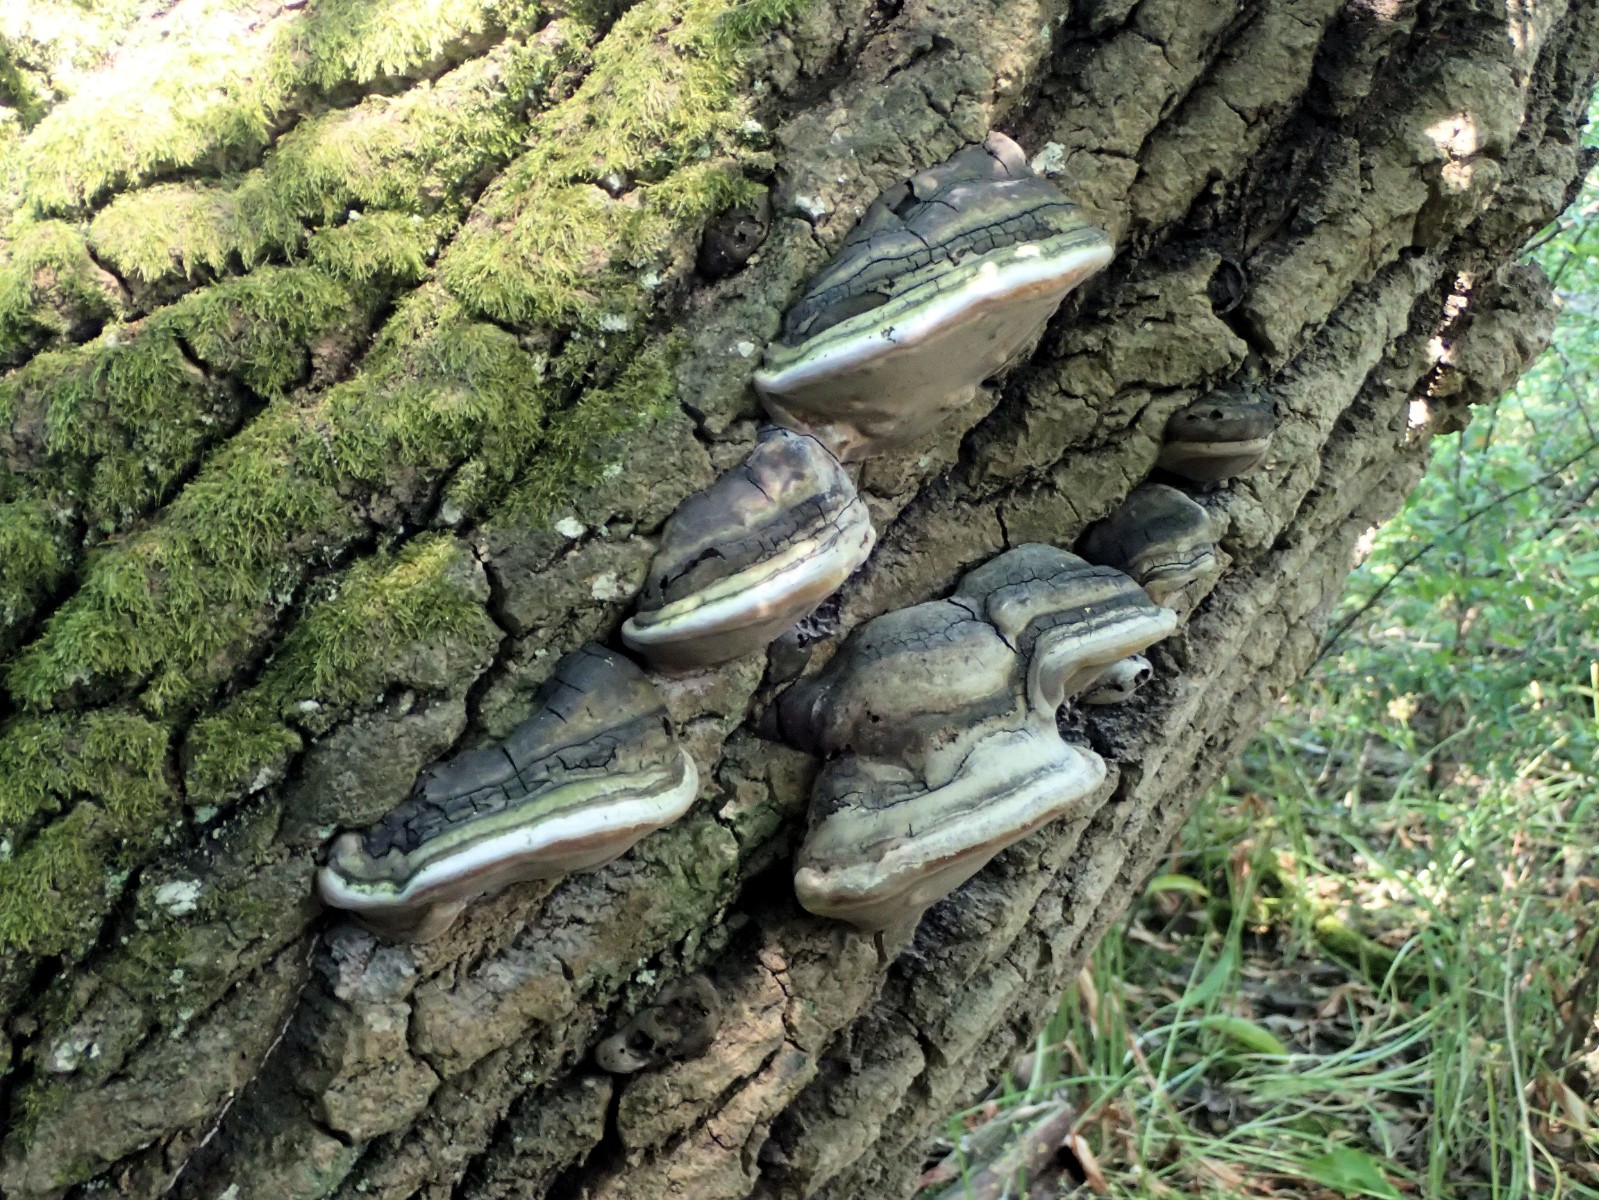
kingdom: Fungi
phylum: Basidiomycota
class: Agaricomycetes
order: Hymenochaetales
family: Hymenochaetaceae
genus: Phellinus
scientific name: Phellinus populicola
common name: poppel-ildporesvamp
